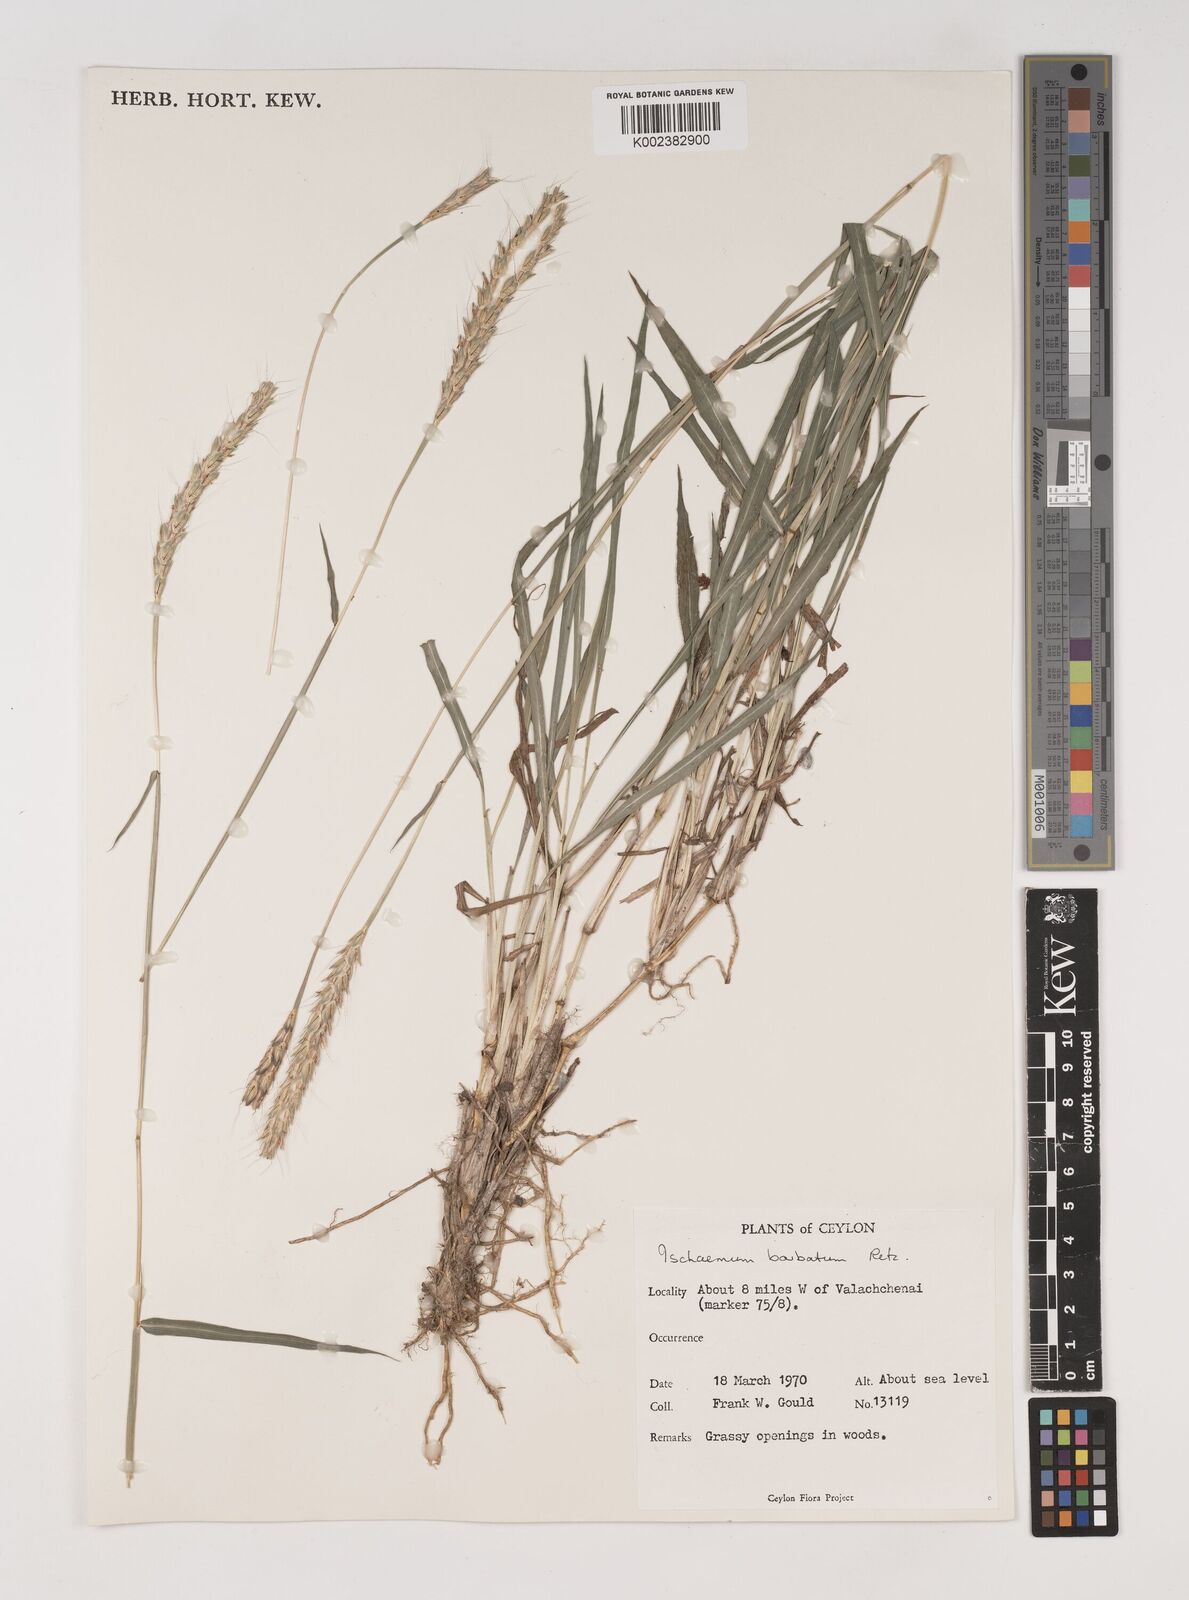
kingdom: Plantae
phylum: Tracheophyta
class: Liliopsida
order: Poales
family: Poaceae
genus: Ischaemum
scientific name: Ischaemum
